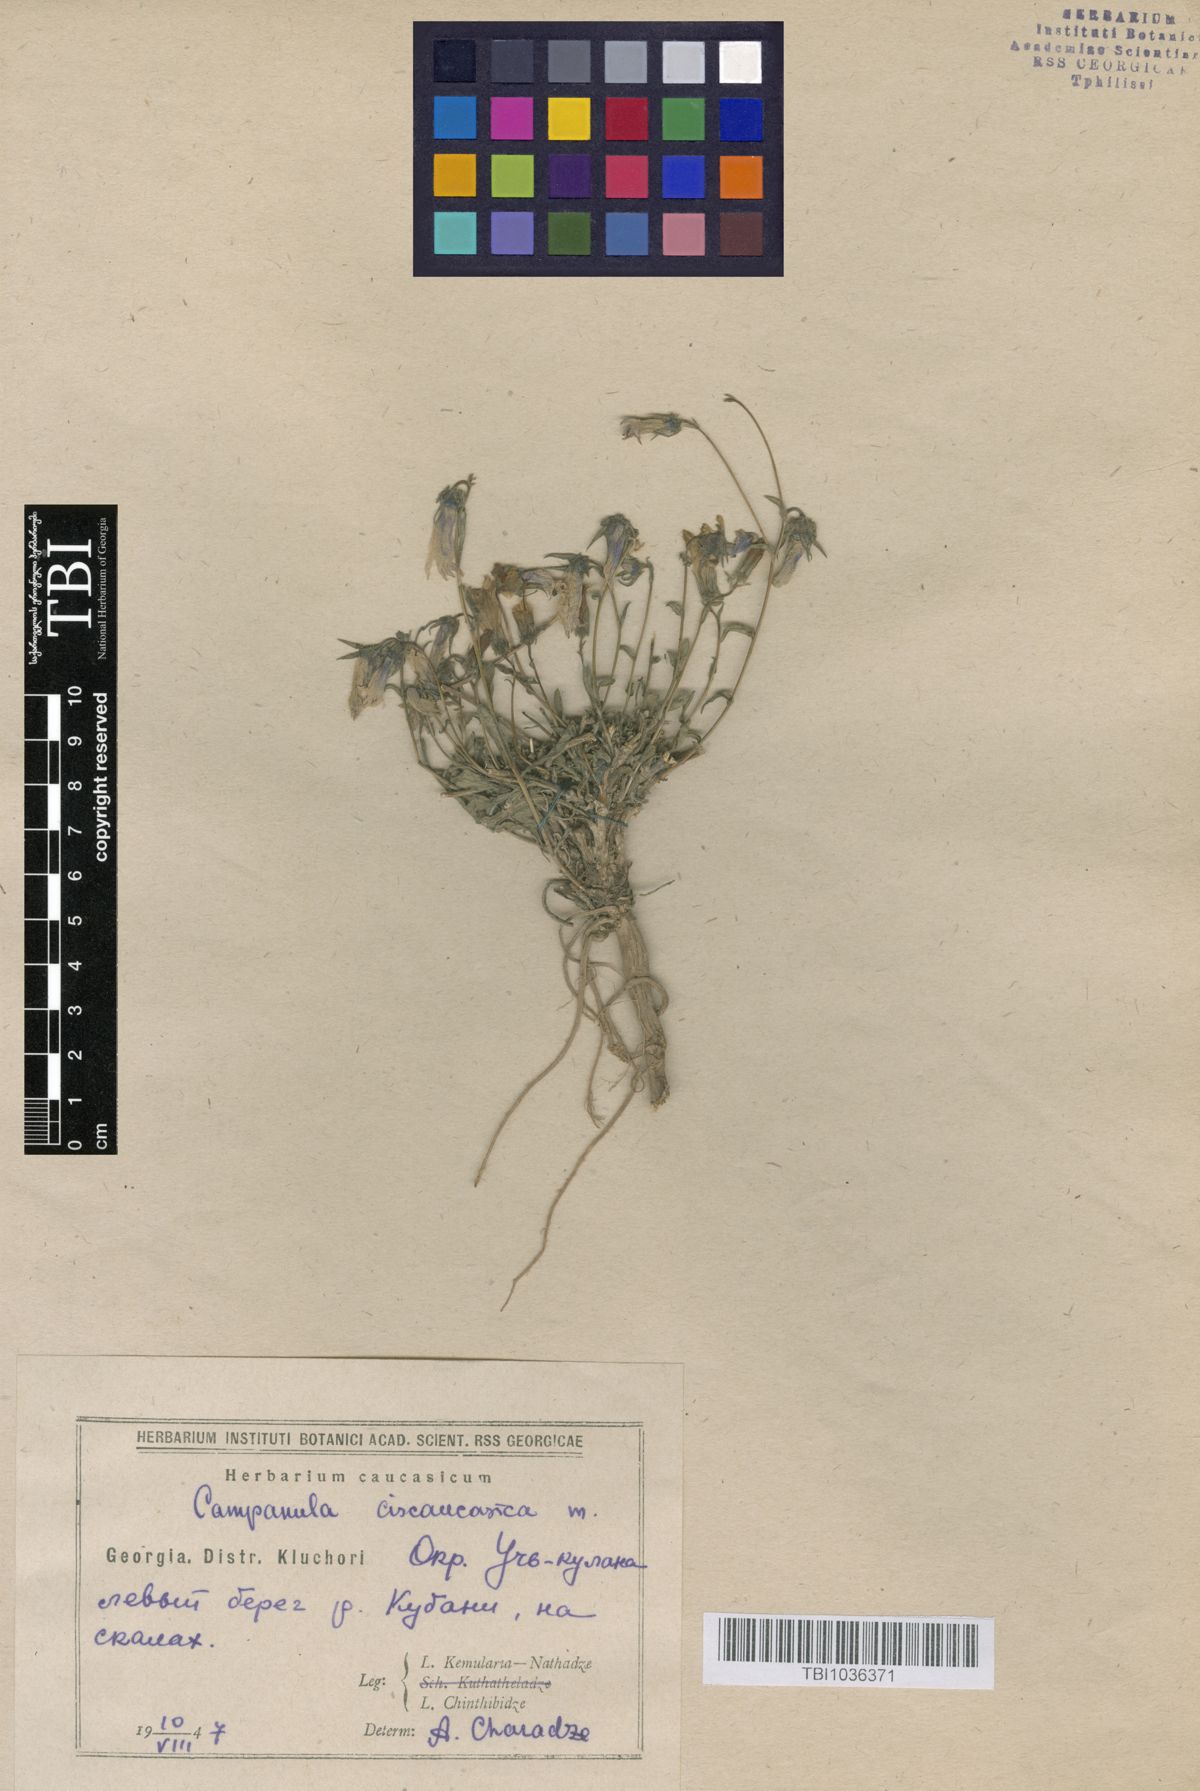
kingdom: Plantae
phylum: Tracheophyta
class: Magnoliopsida
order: Asterales
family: Campanulaceae
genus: Campanula
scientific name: Campanula sibirica
